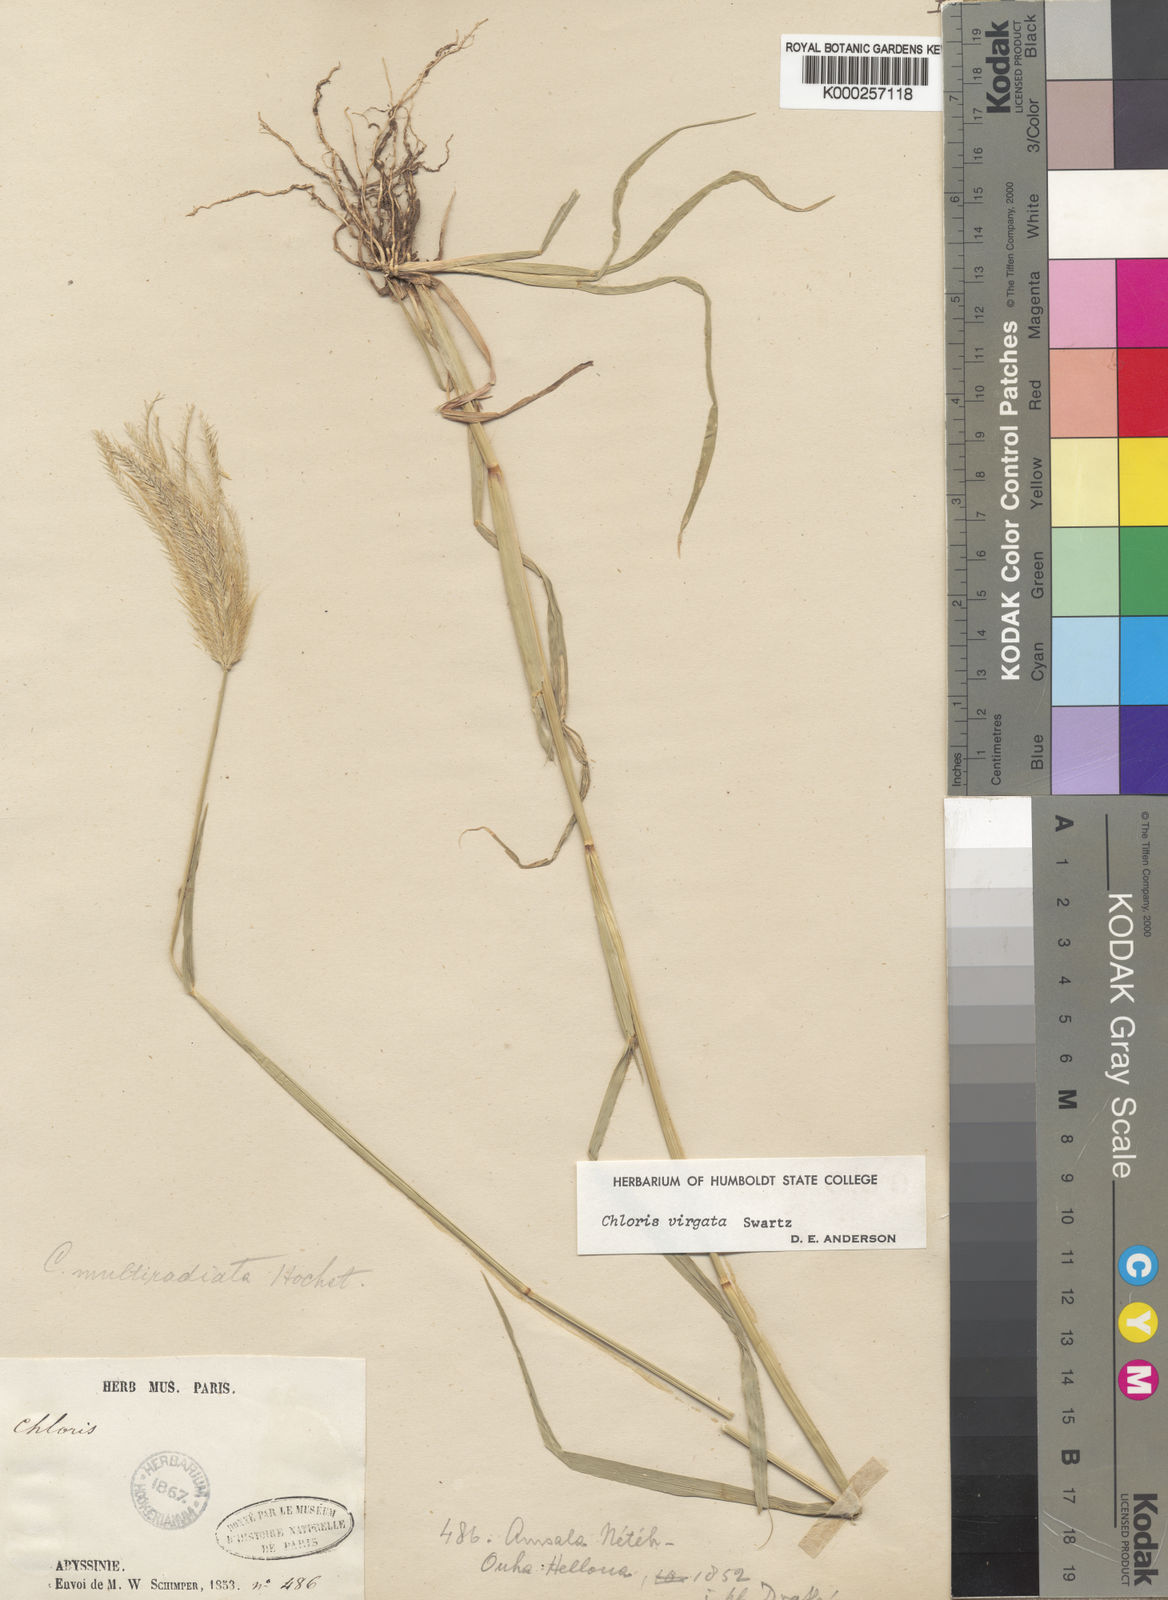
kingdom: Plantae
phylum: Tracheophyta
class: Liliopsida
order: Poales
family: Poaceae
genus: Chloris
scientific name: Chloris virgata
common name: Feathery rhodes-grass
